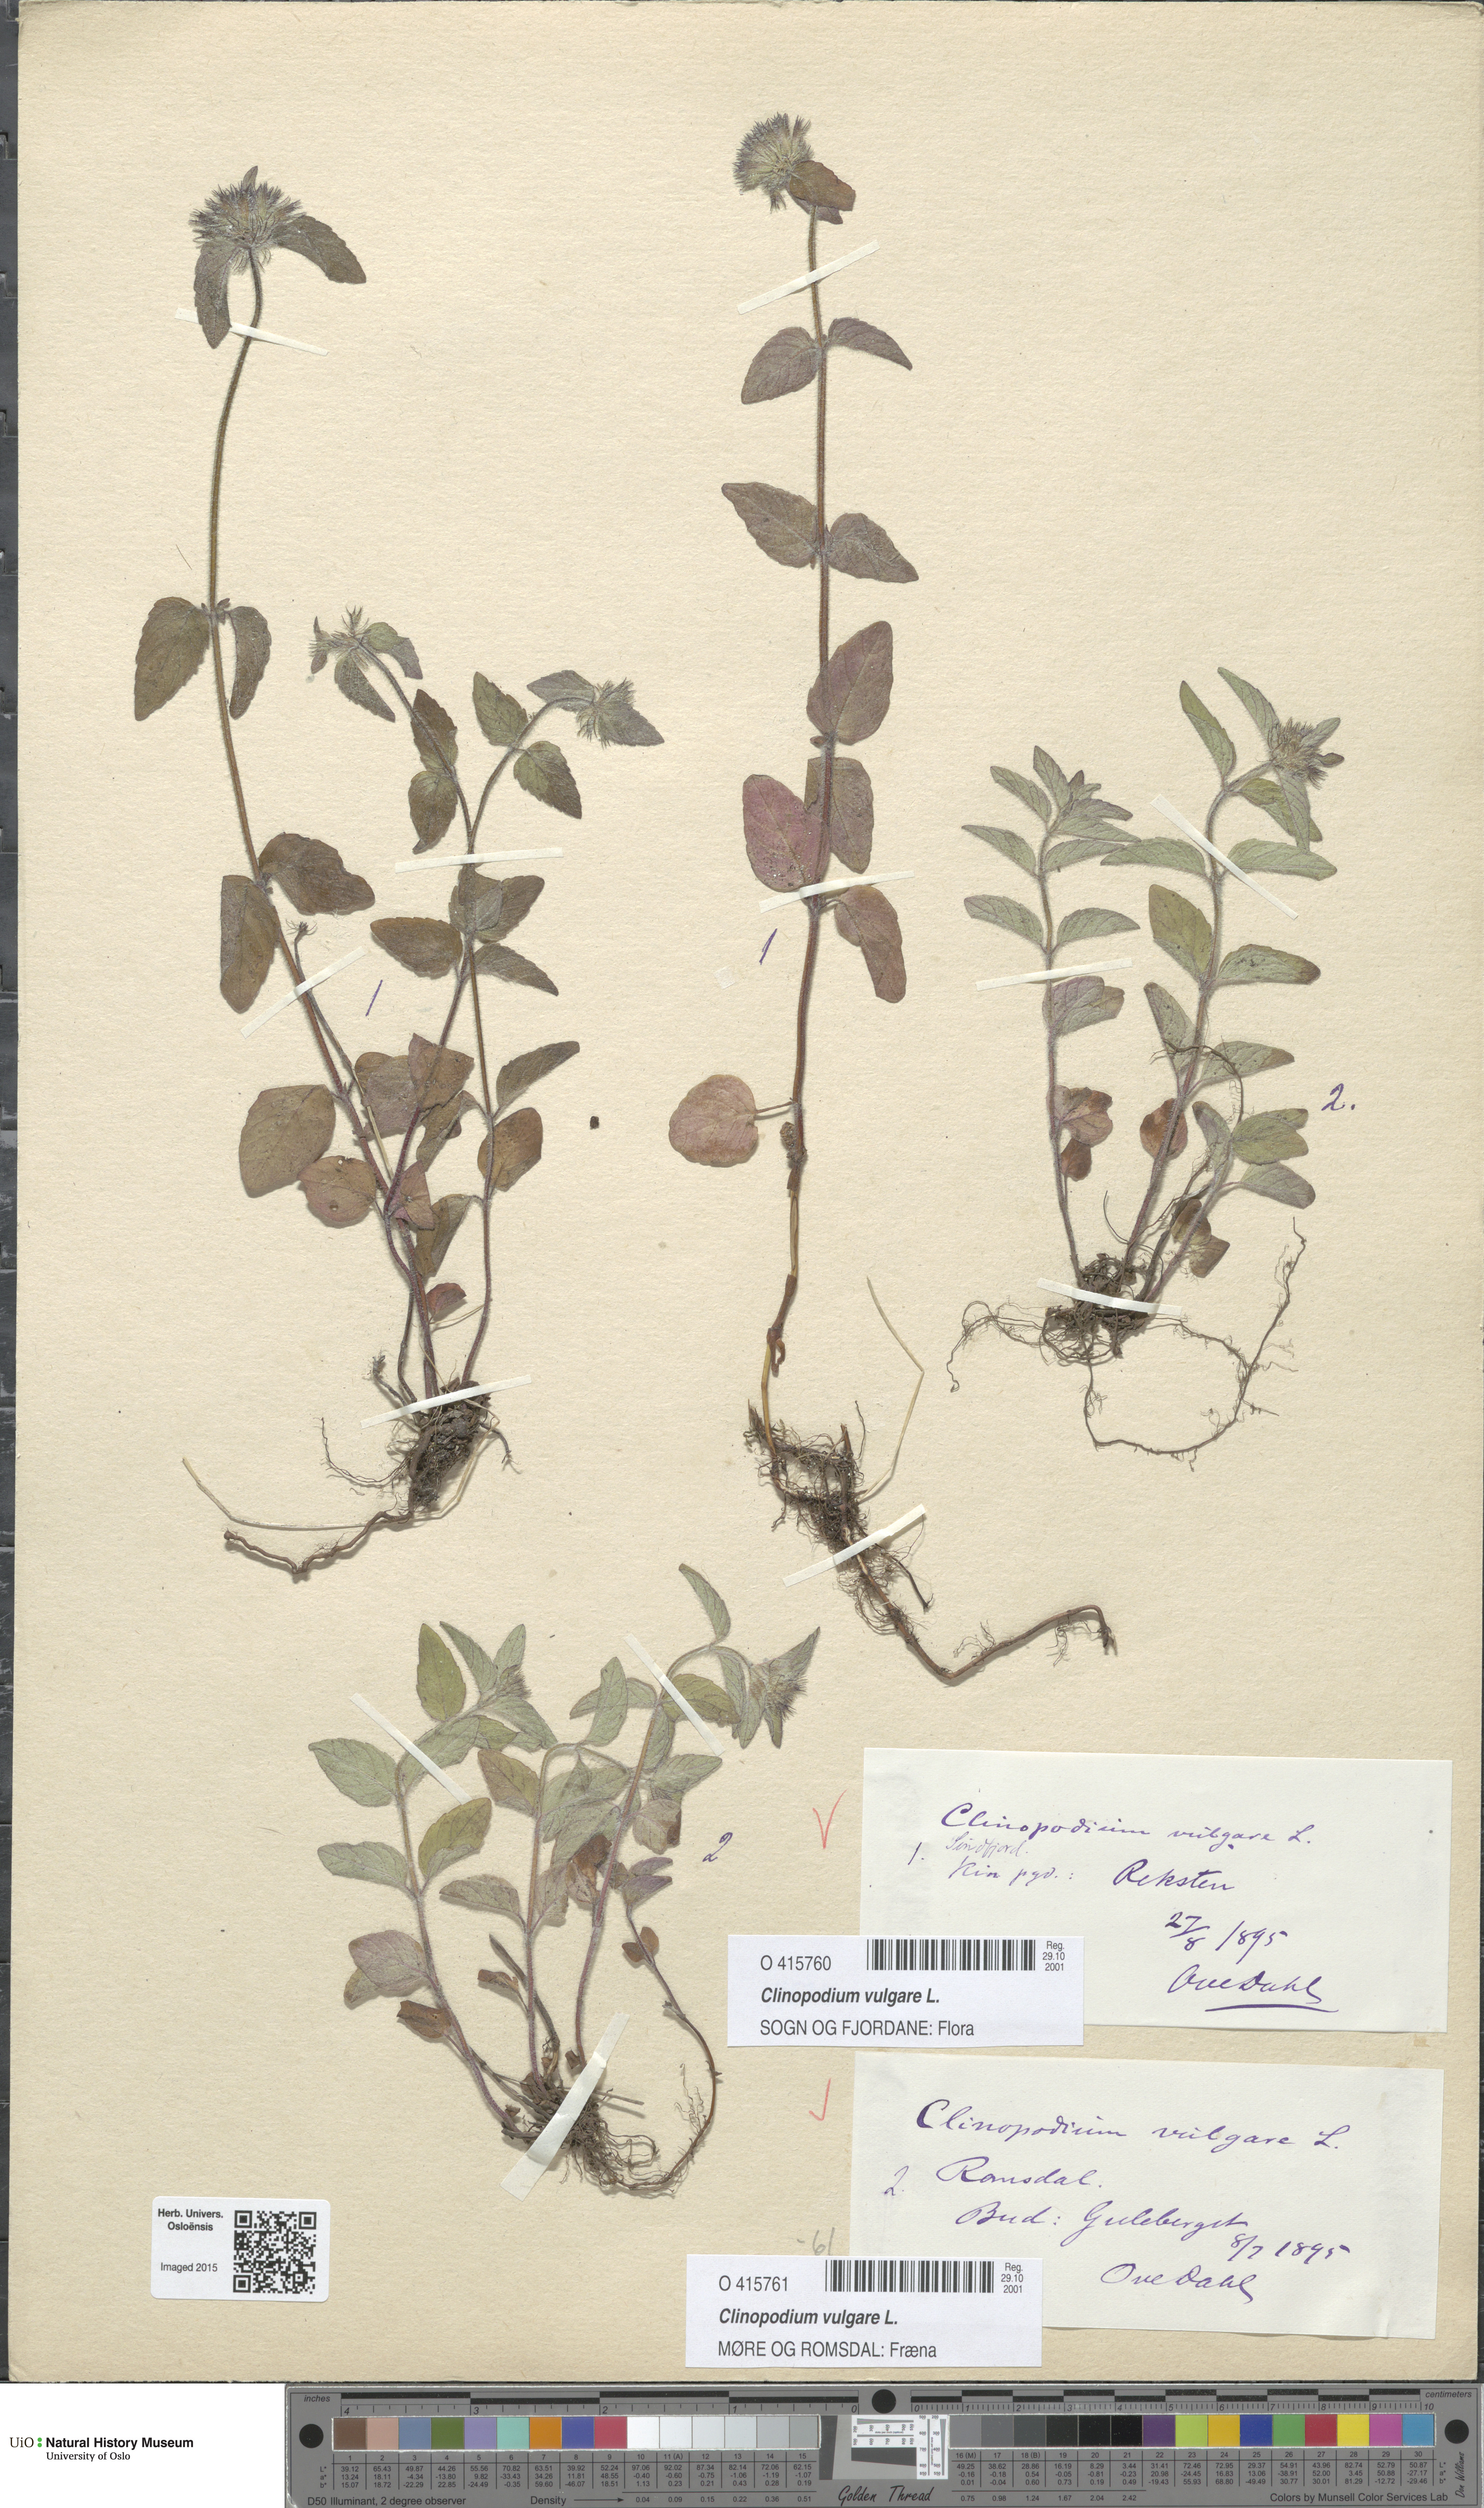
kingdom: Plantae
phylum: Tracheophyta
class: Magnoliopsida
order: Lamiales
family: Lamiaceae
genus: Clinopodium
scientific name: Clinopodium vulgare
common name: Wild basil
